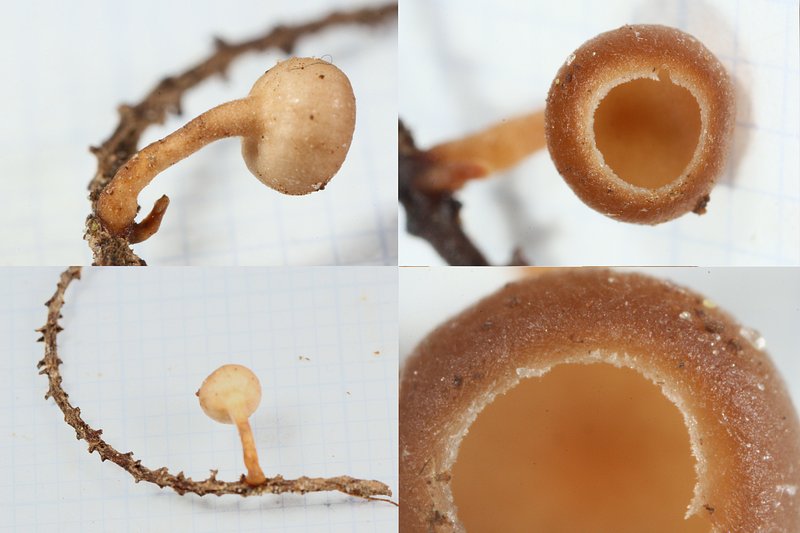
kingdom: Fungi
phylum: Ascomycota
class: Leotiomycetes
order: Helotiales
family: Sclerotiniaceae
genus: Ciboria
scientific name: Ciboria amentacea
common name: ellerakle-knoldskive
